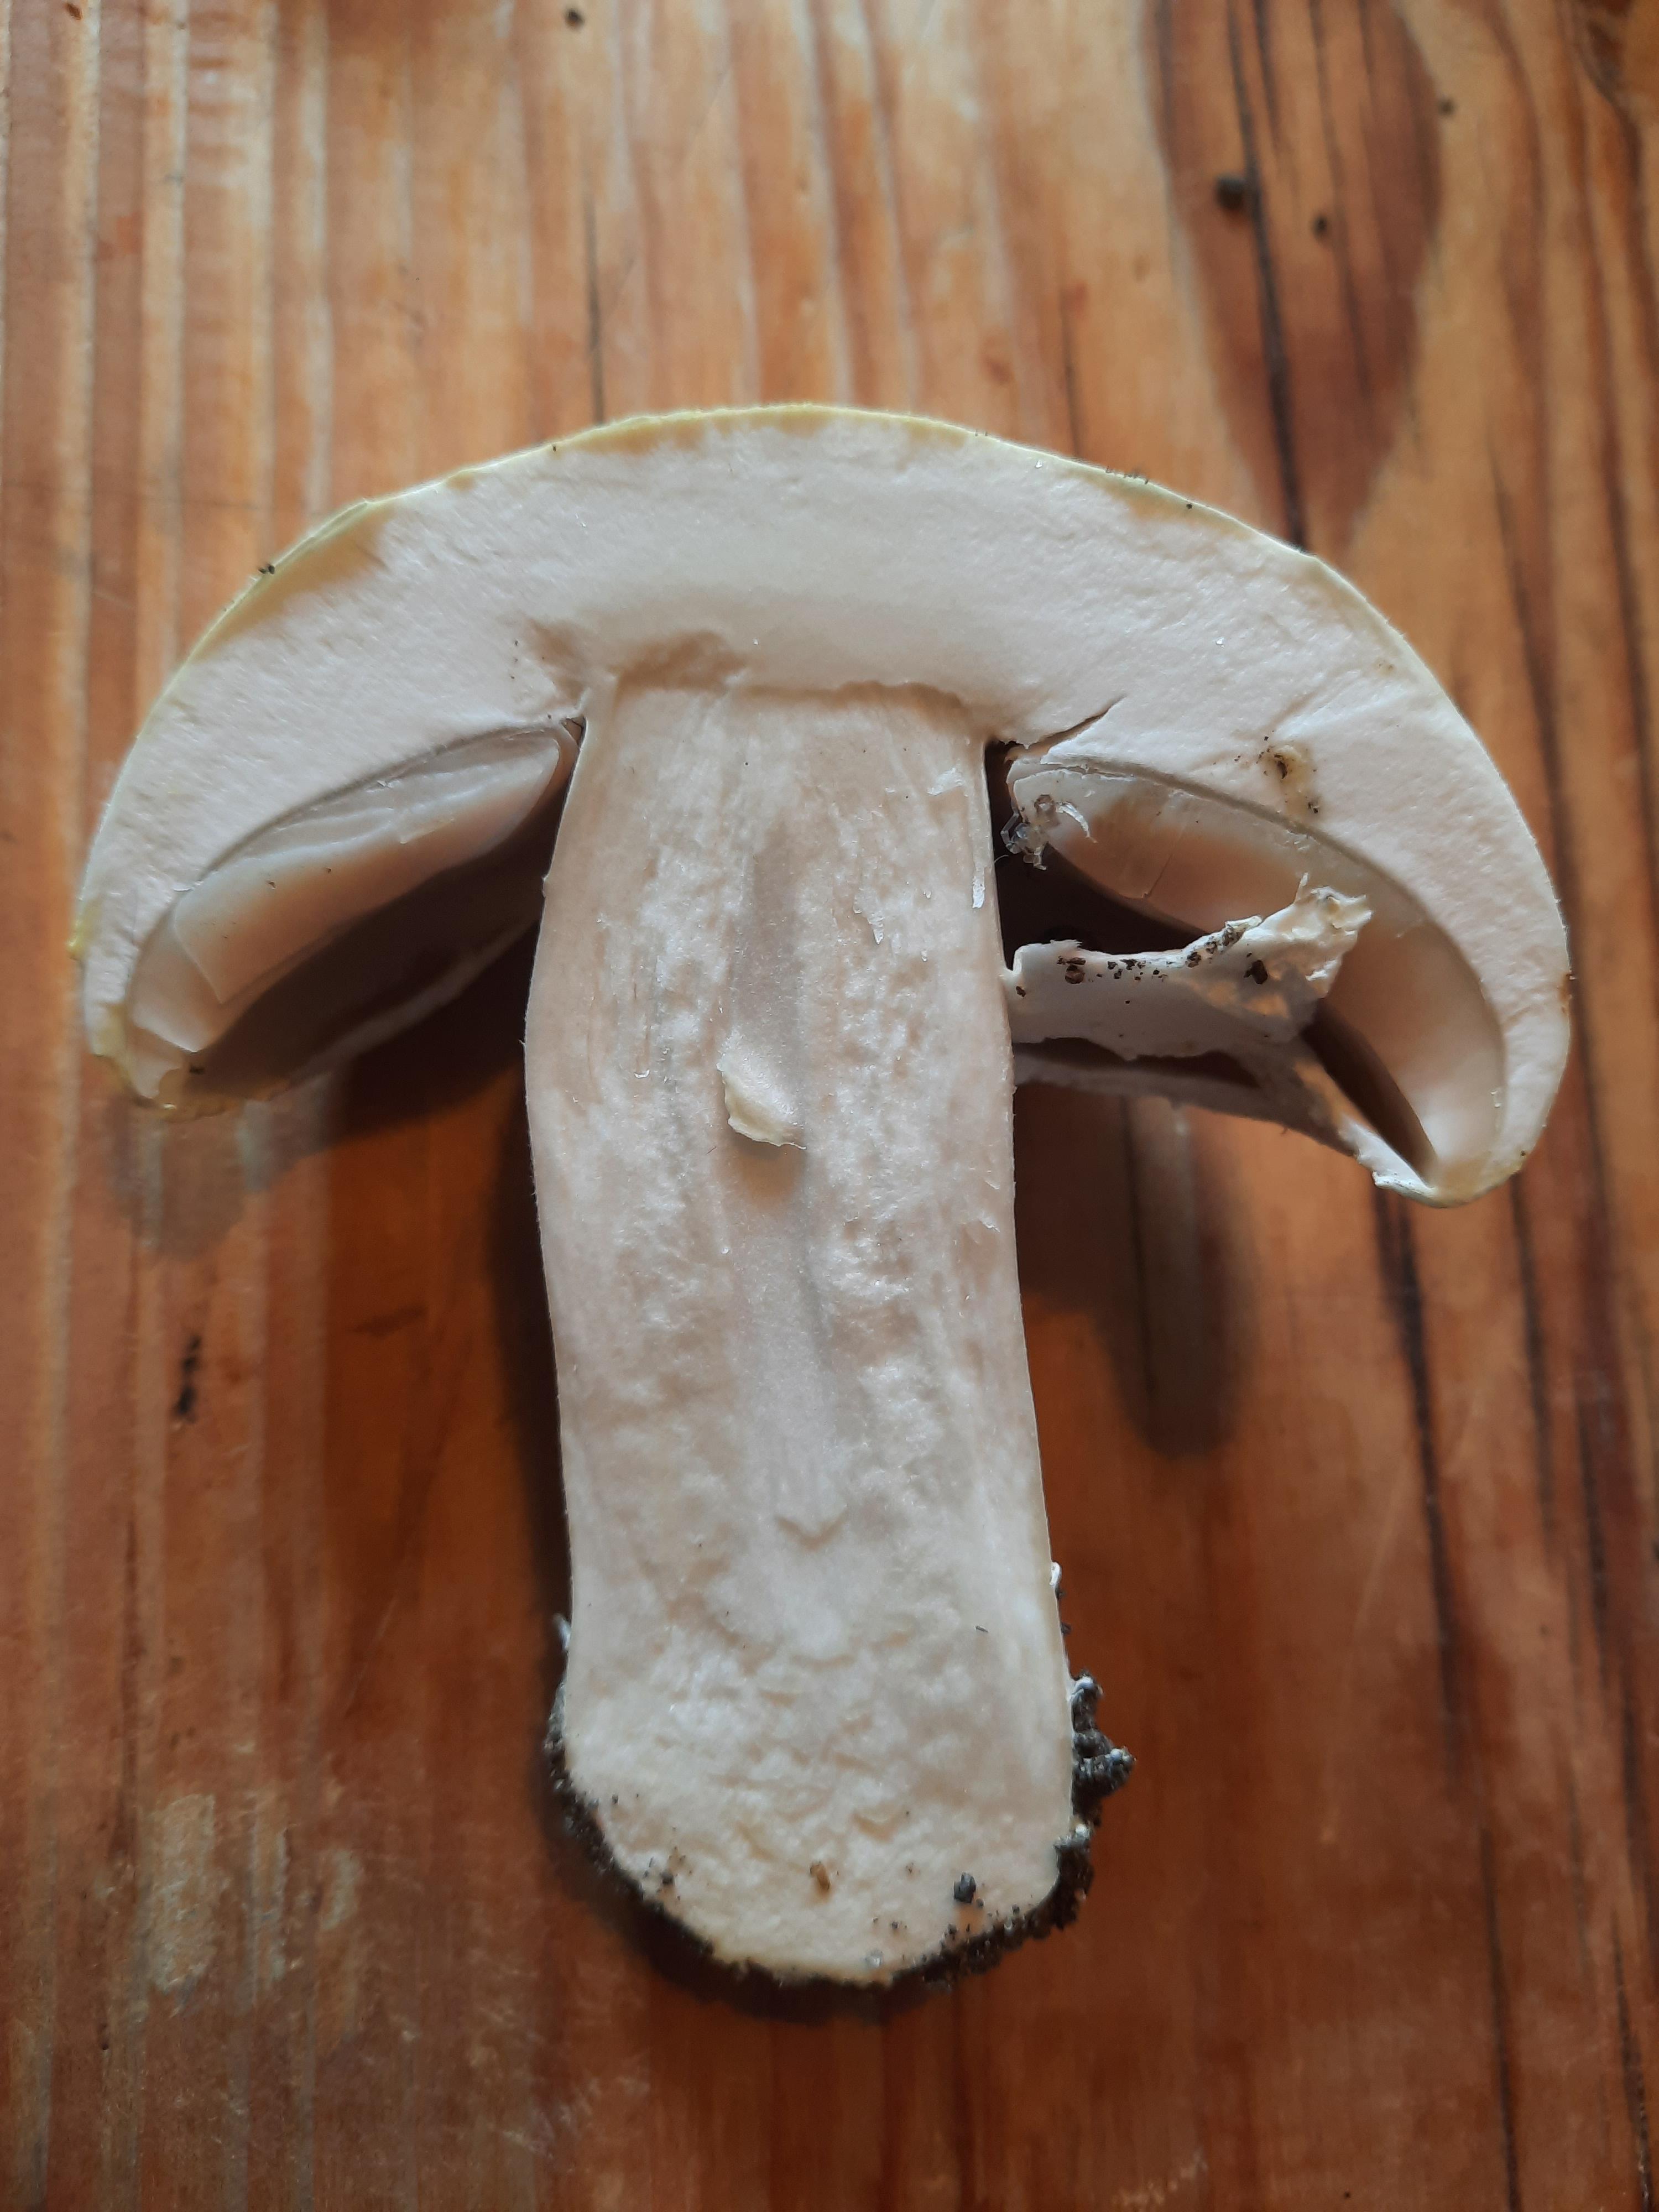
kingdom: Fungi
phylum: Basidiomycota
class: Agaricomycetes
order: Agaricales
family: Agaricaceae
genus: Agaricus
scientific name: Agaricus
